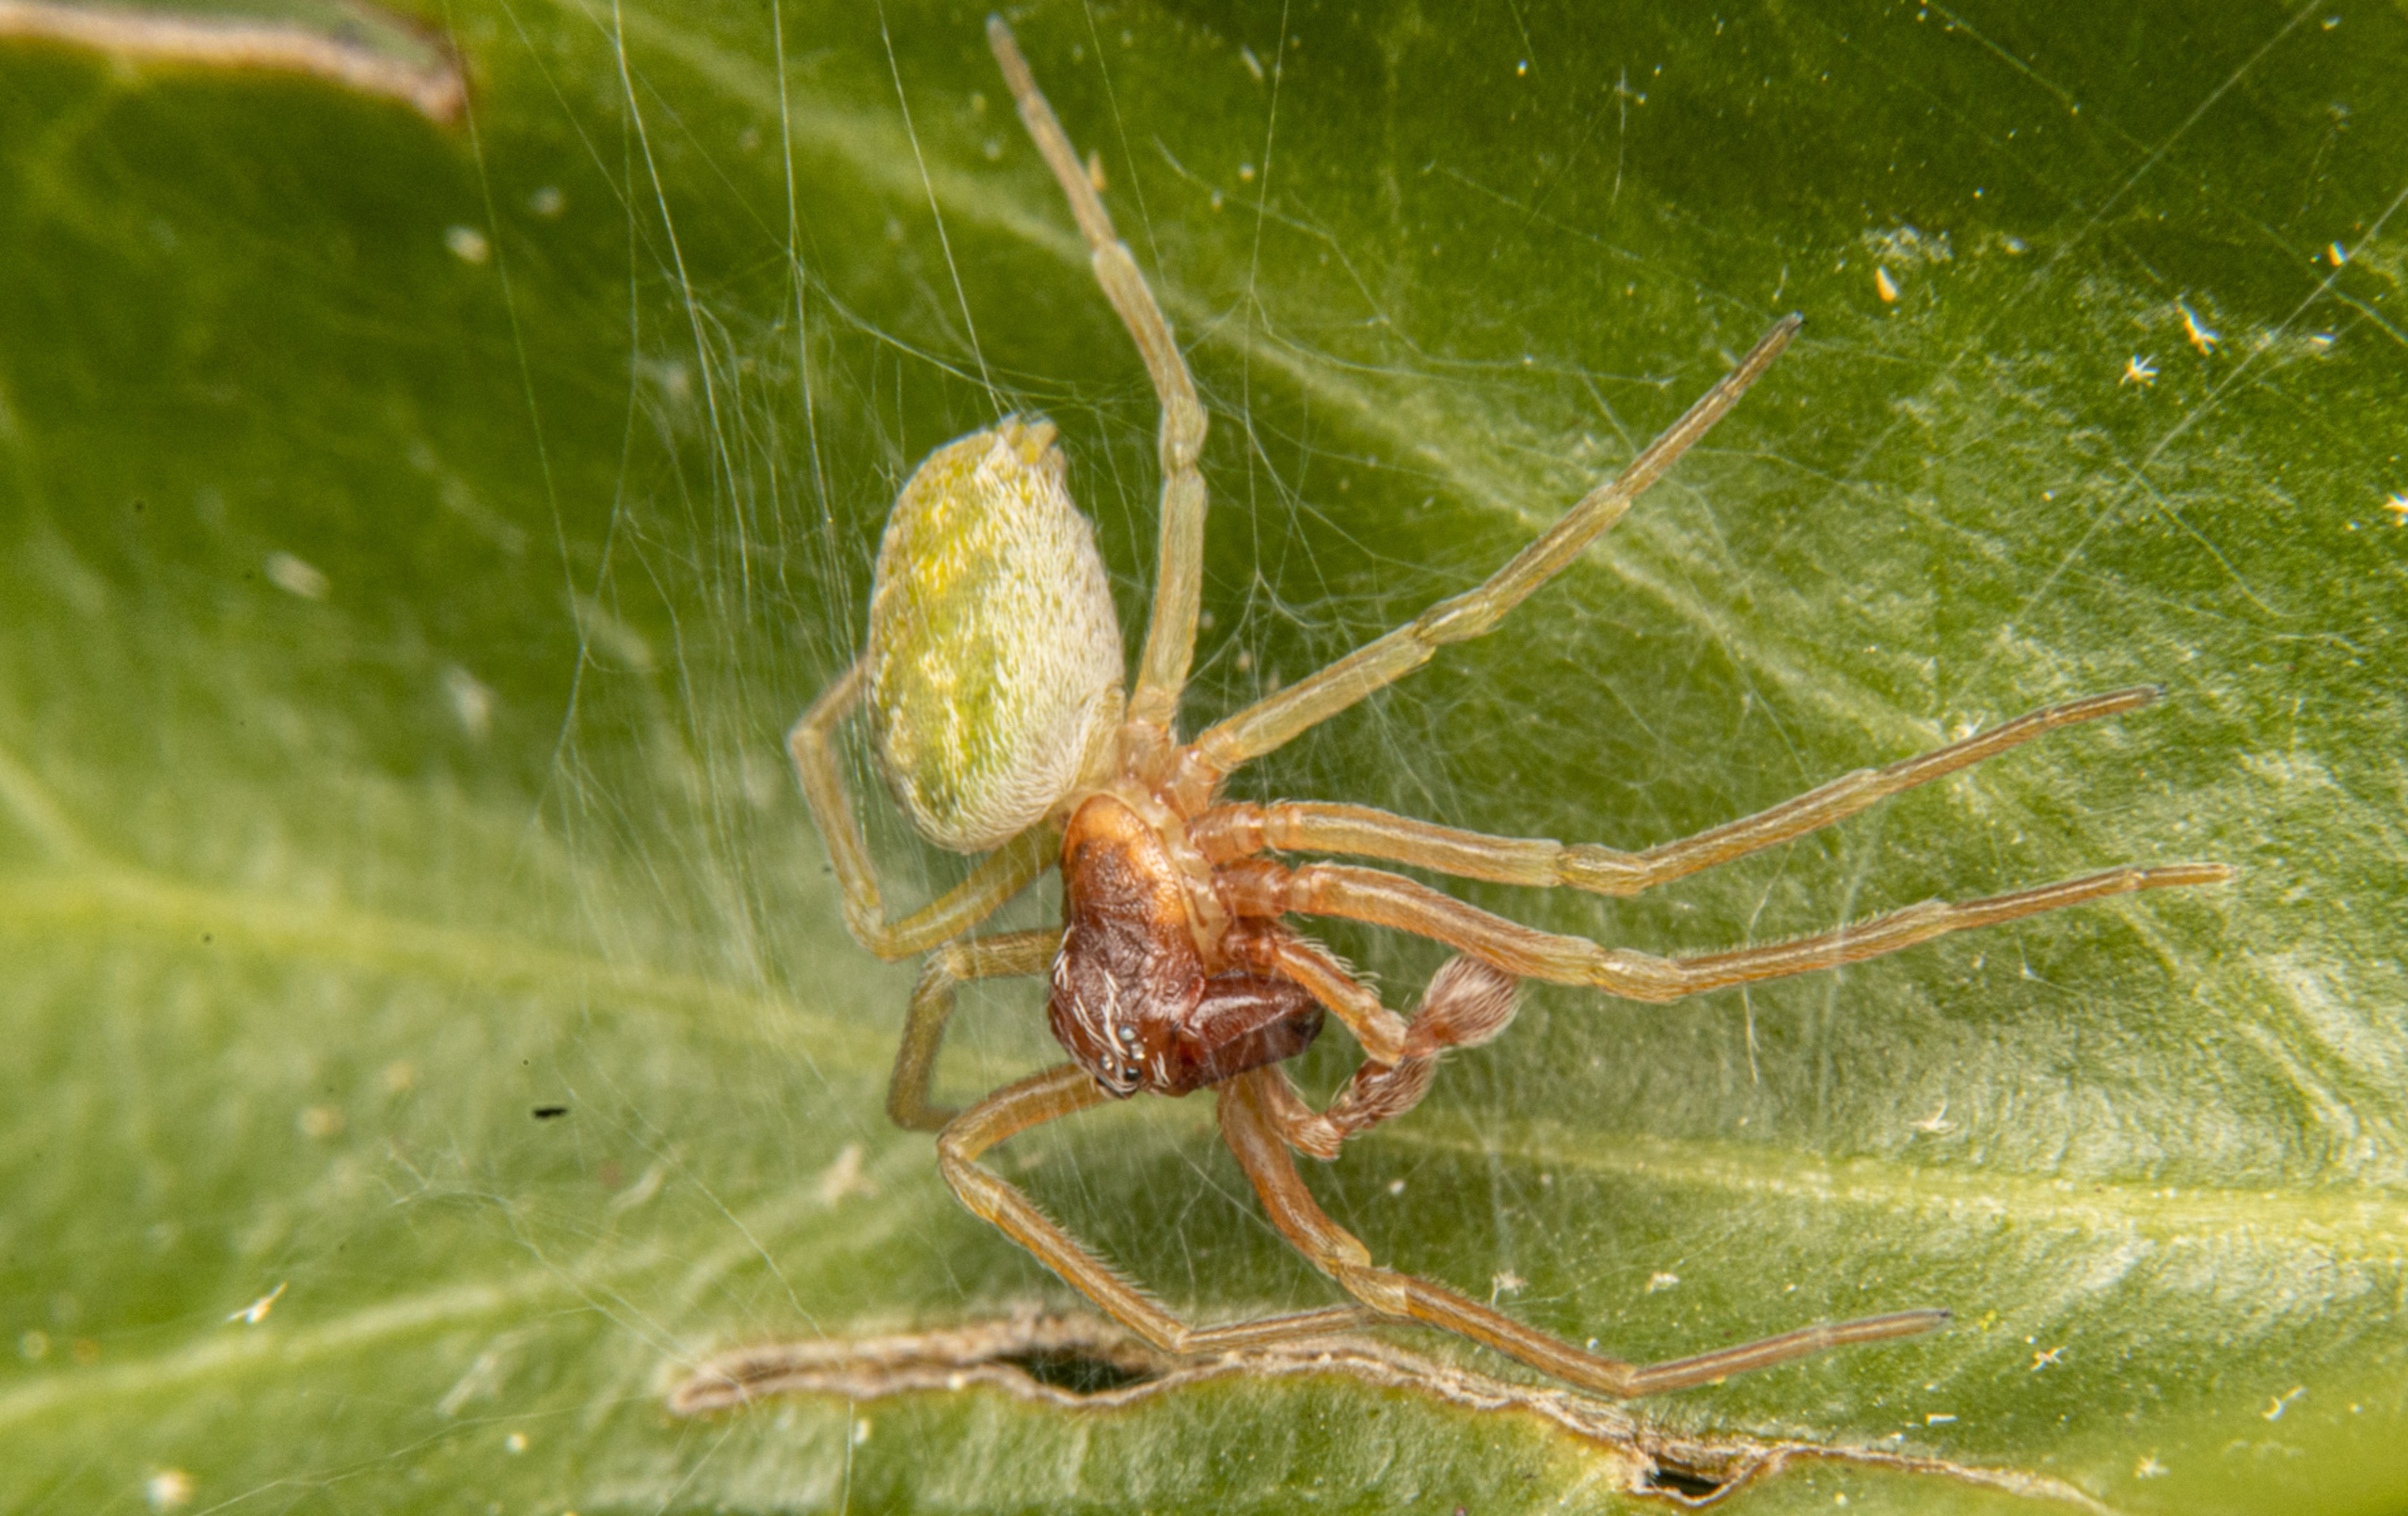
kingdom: Animalia
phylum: Arthropoda
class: Arachnida
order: Araneae
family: Dictynidae
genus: Nigma
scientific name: Nigma walckenaeri
